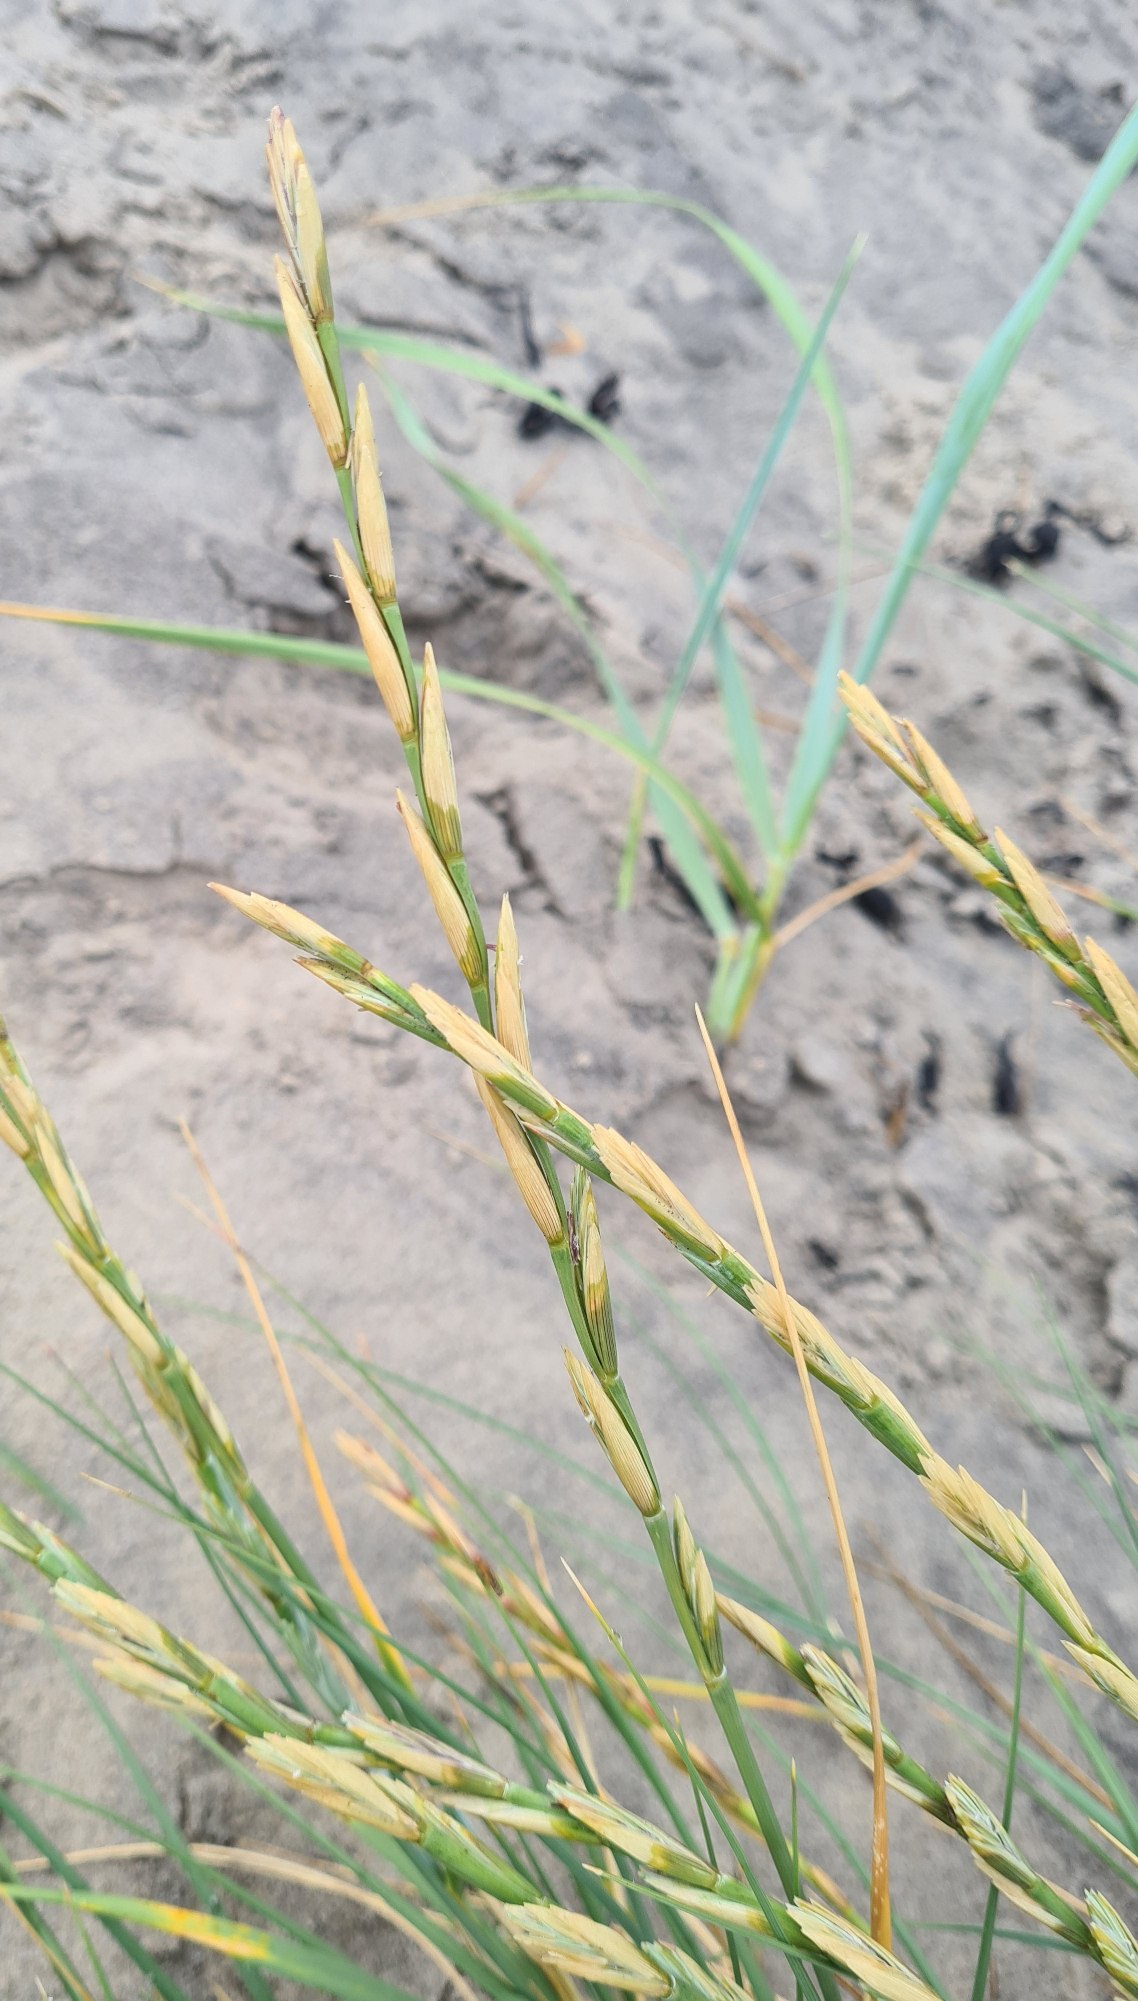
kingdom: Plantae
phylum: Tracheophyta
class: Liliopsida
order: Poales
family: Poaceae
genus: Thinopyrum
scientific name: Thinopyrum junceum
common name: Strand-kvik
